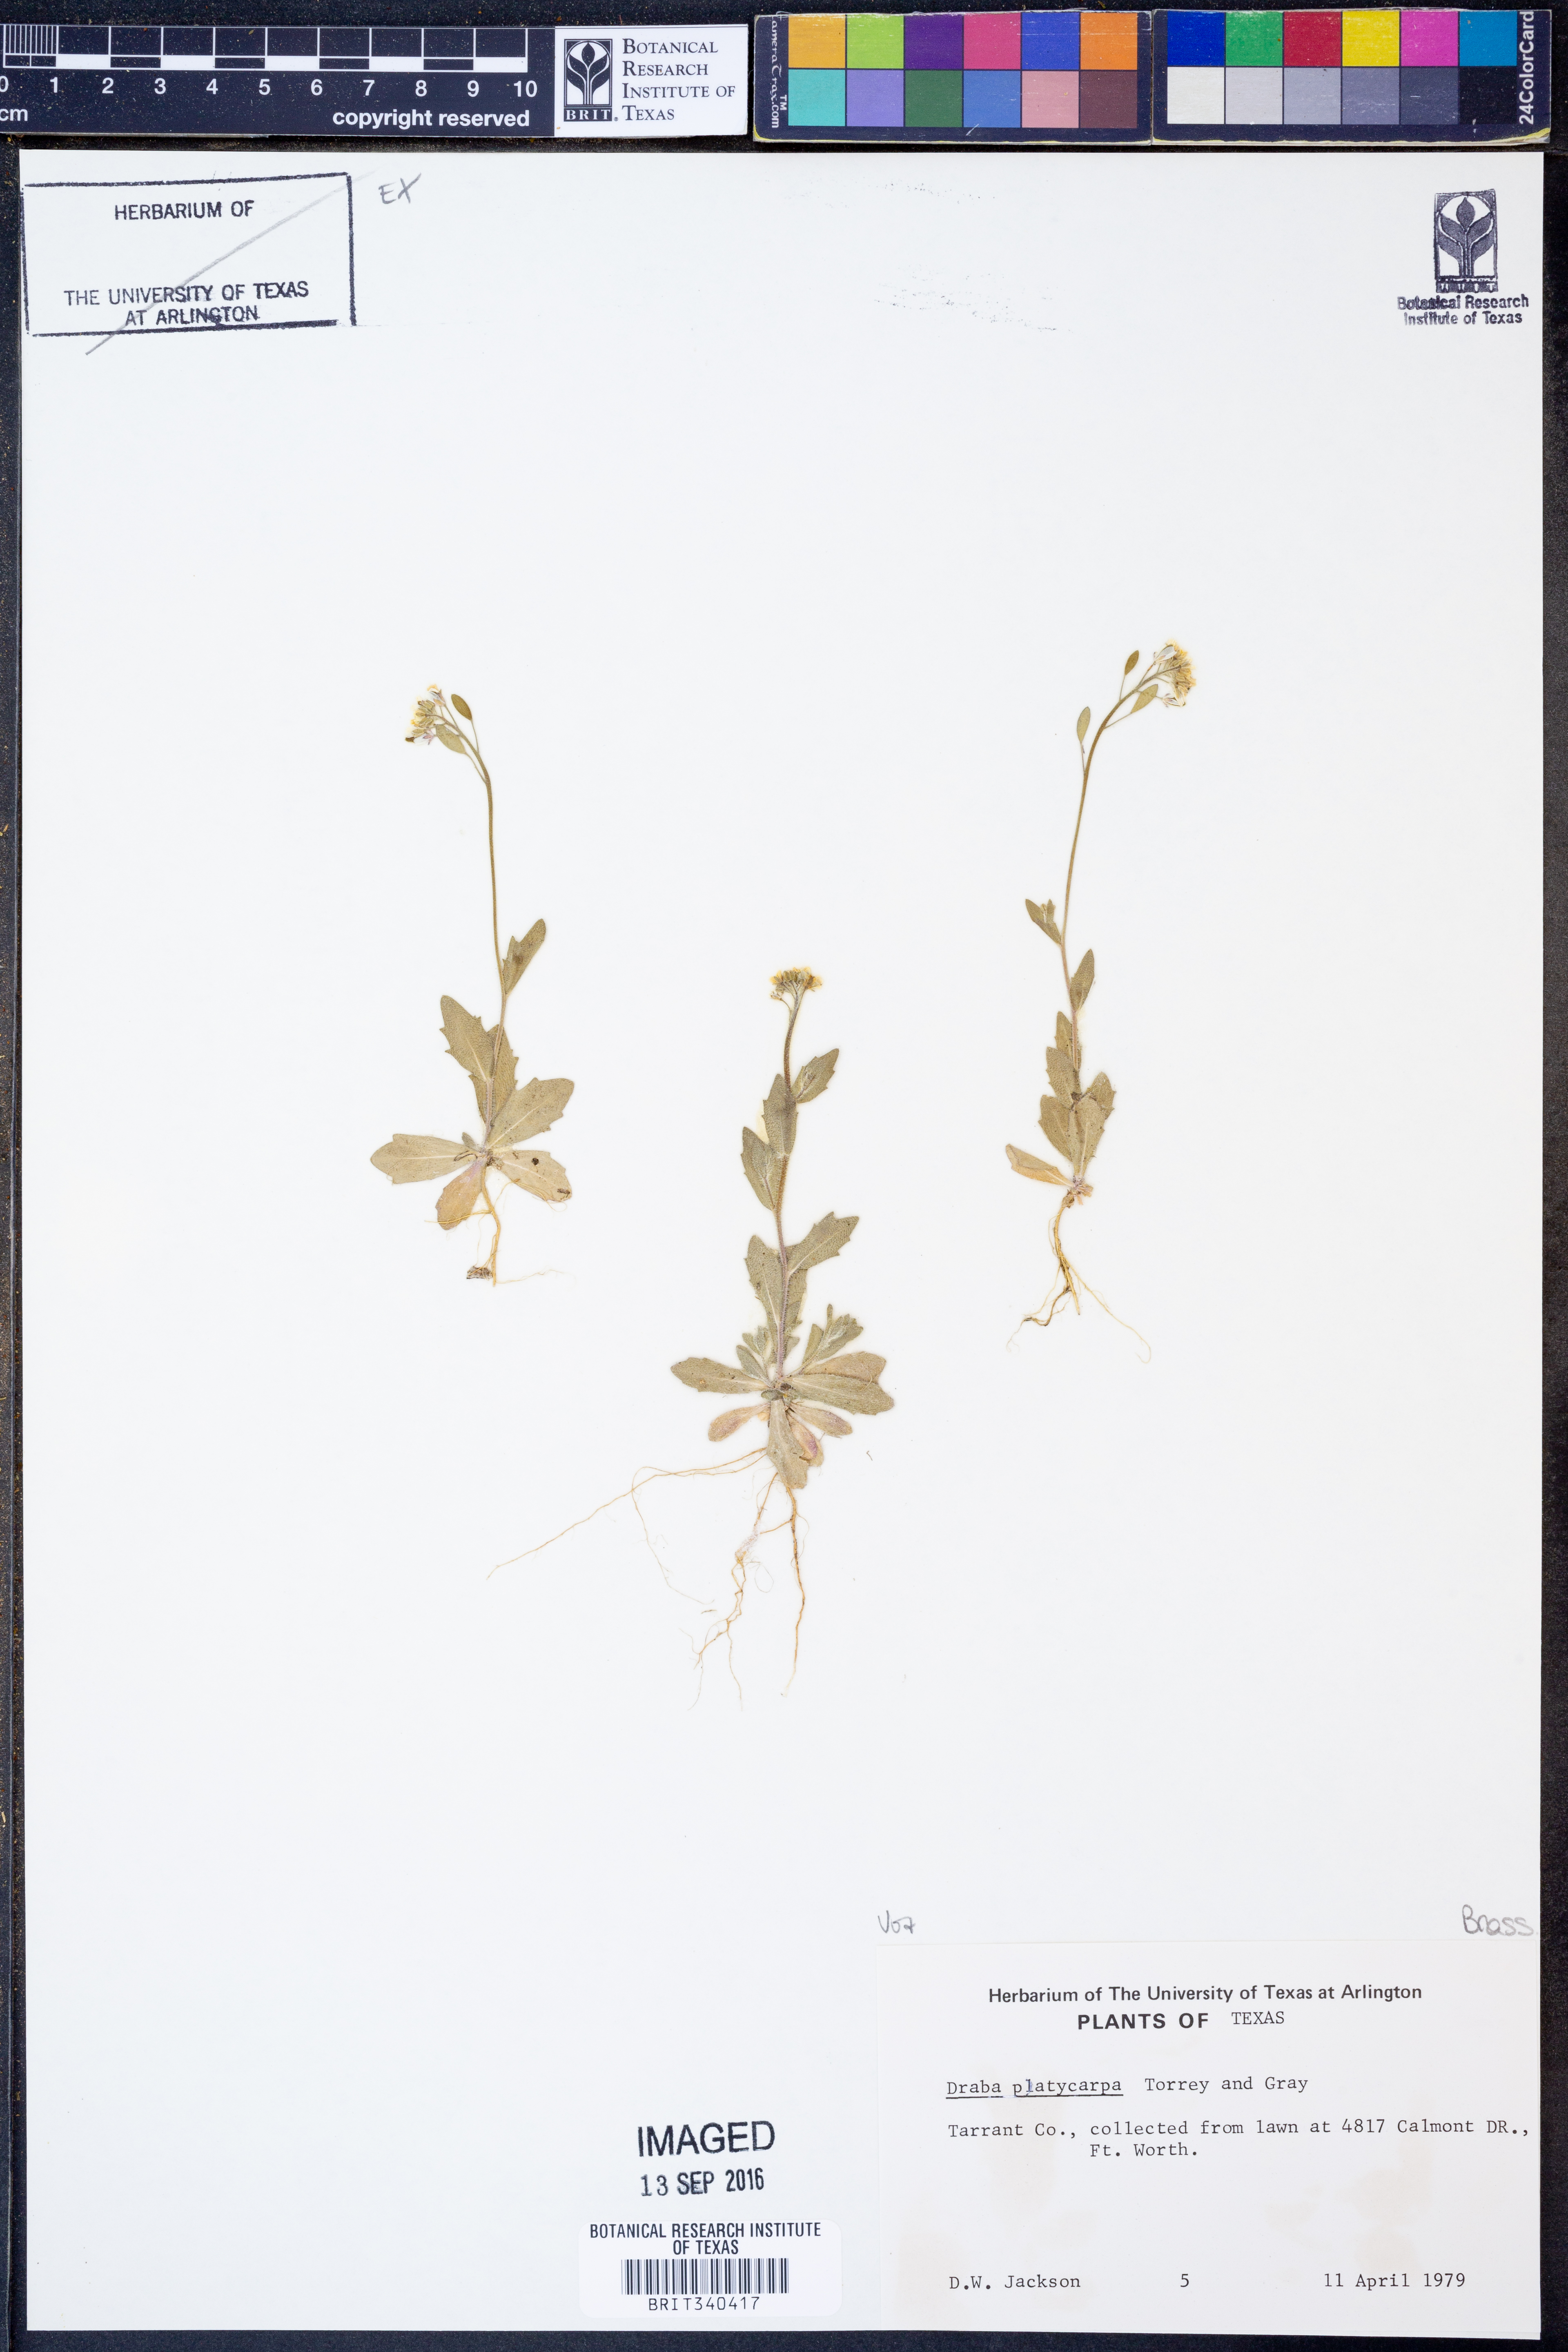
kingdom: Plantae
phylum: Tracheophyta
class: Magnoliopsida
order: Brassicales
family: Brassicaceae
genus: Tomostima
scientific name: Tomostima platycarpa
